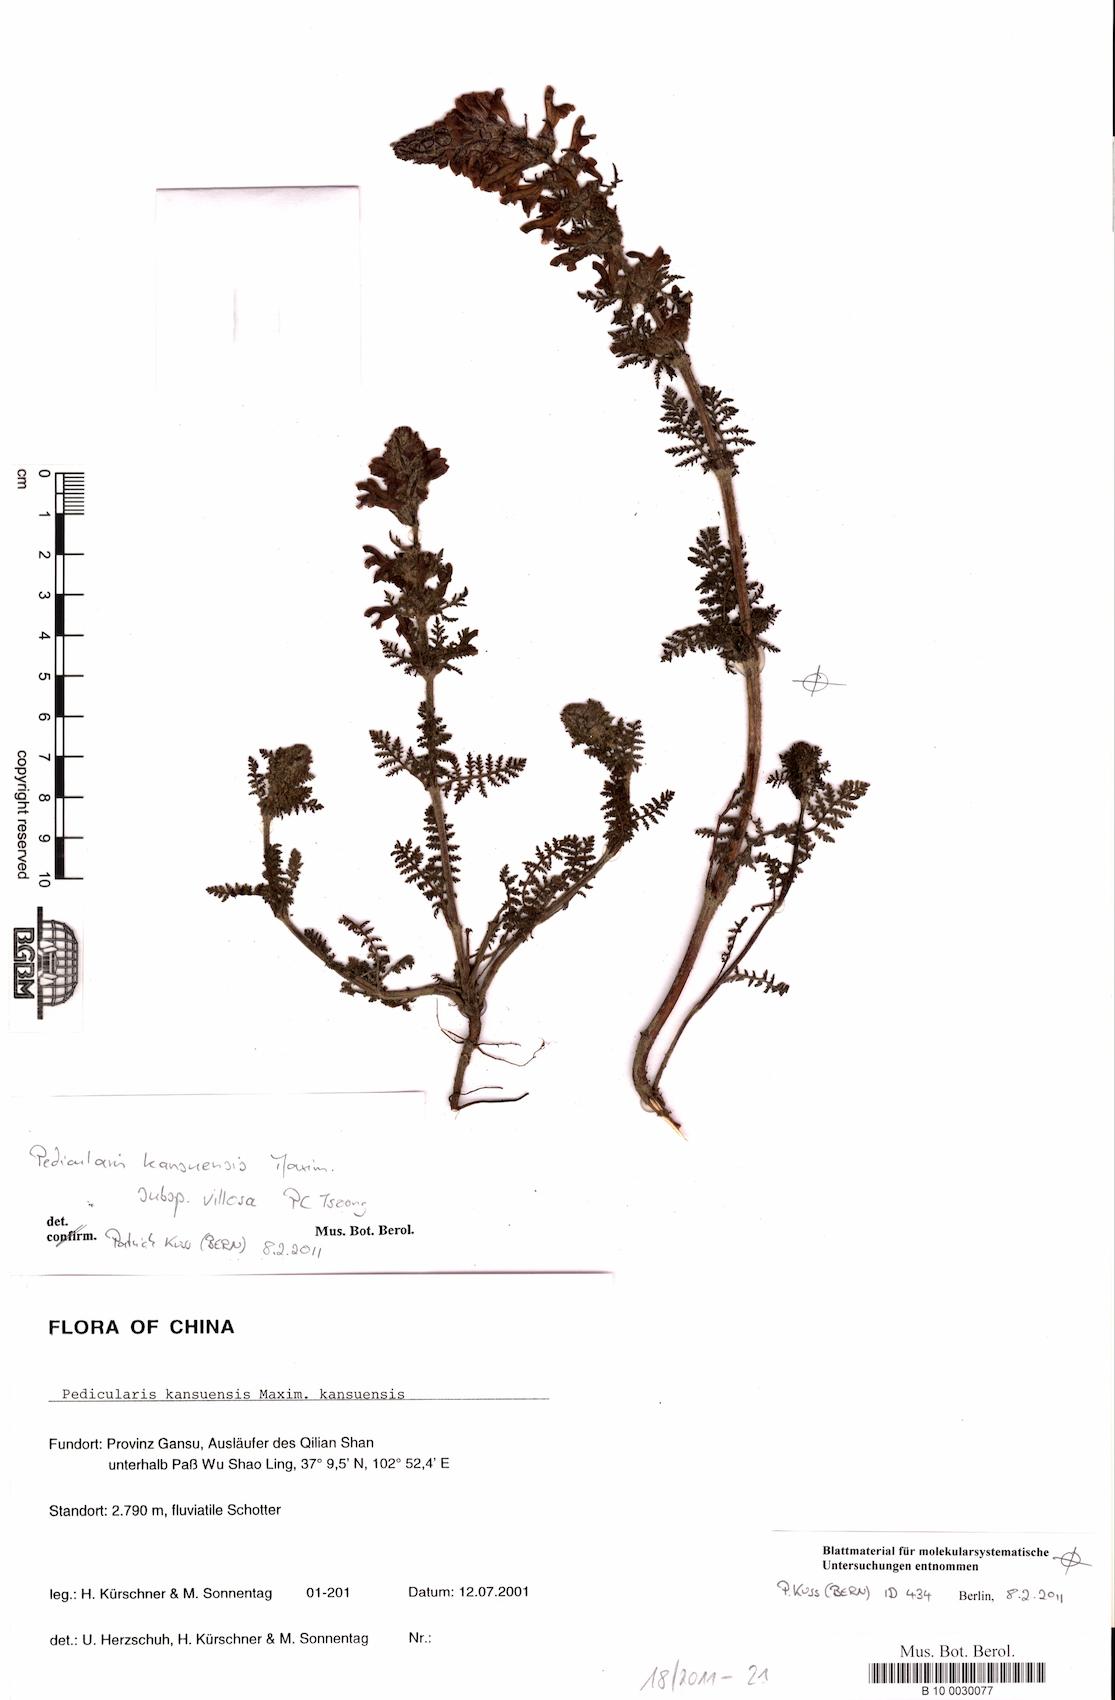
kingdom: Plantae
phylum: Tracheophyta
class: Magnoliopsida
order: Lamiales
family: Orobanchaceae
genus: Pedicularis
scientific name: Pedicularis kansuensis
